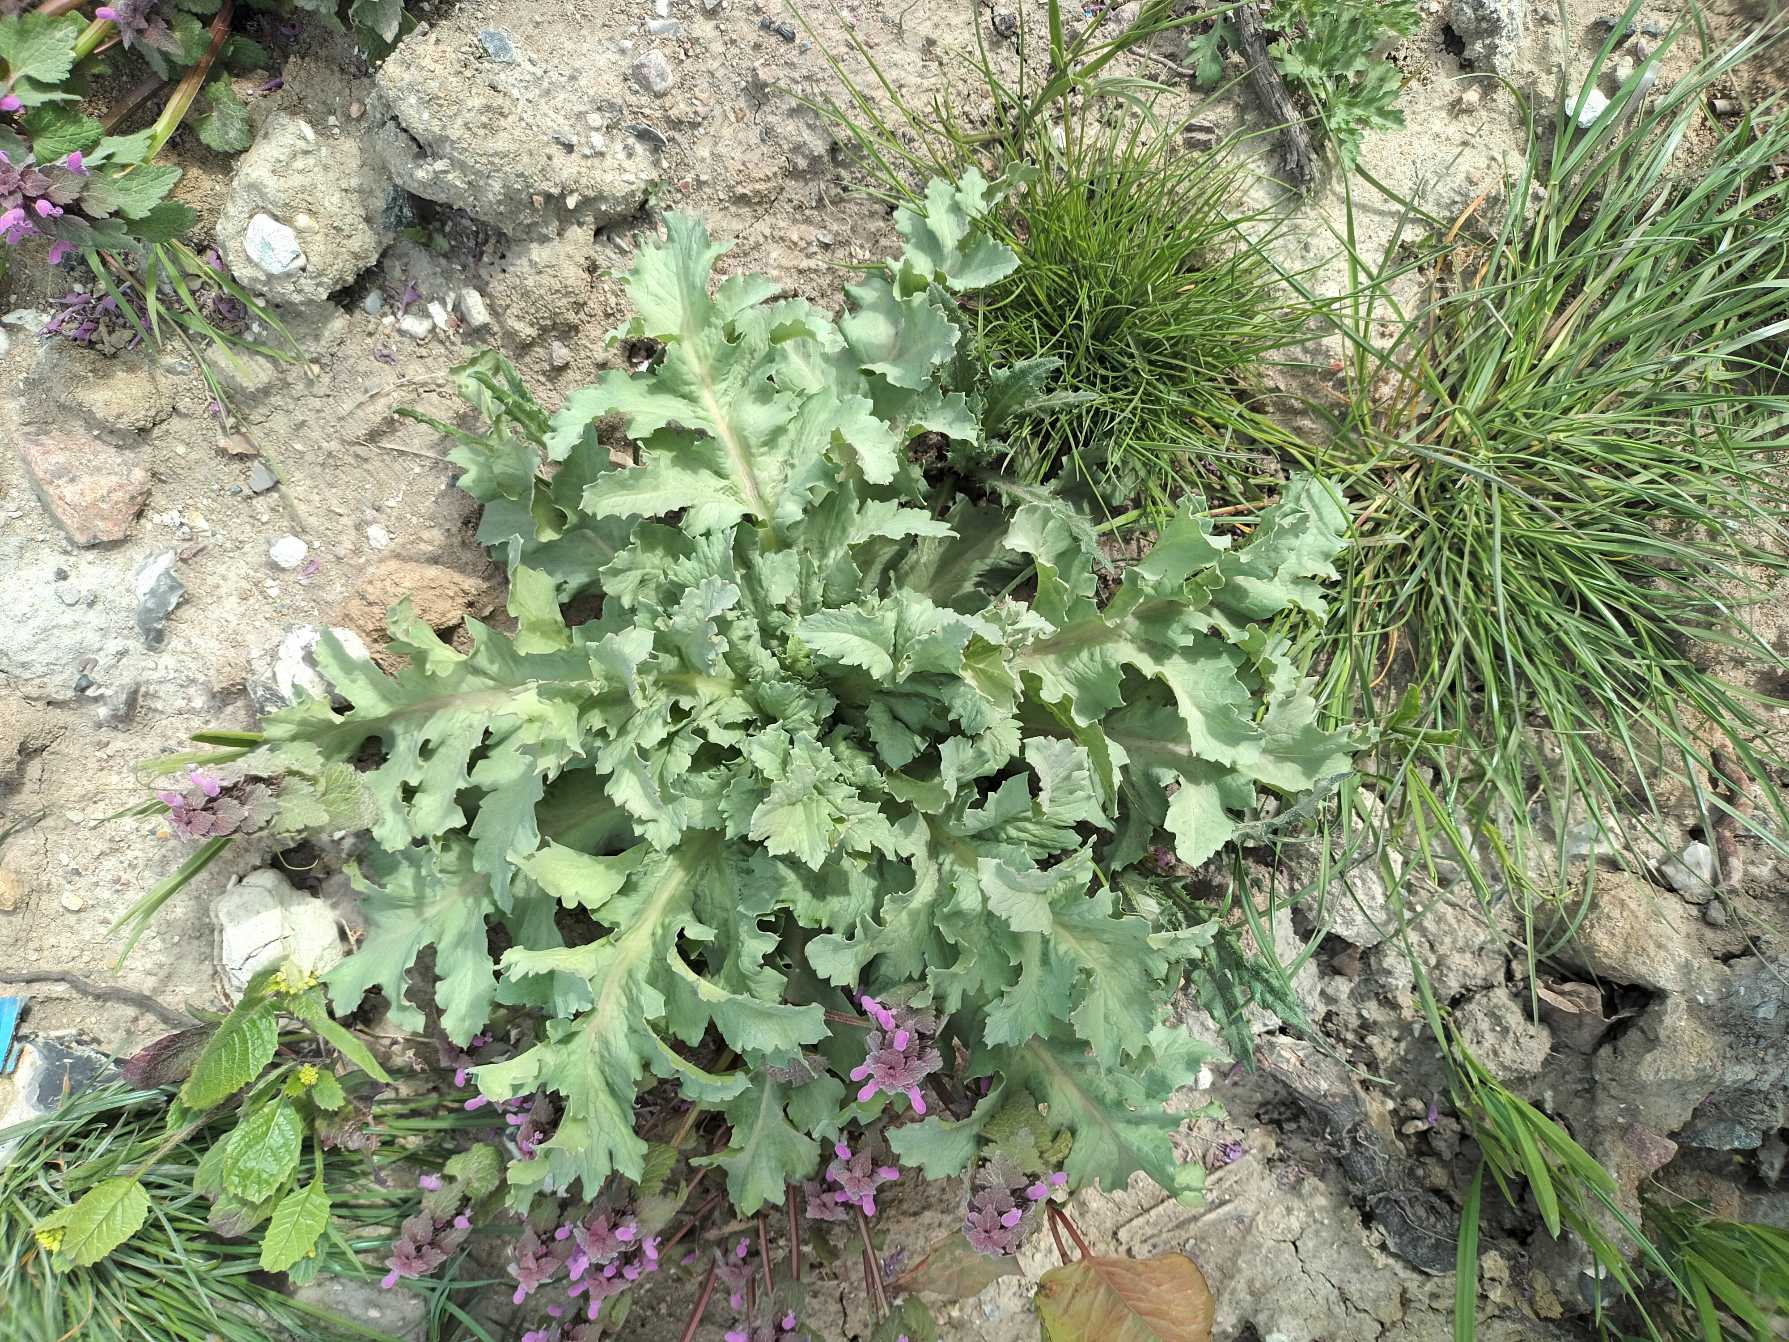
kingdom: Plantae
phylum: Tracheophyta
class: Magnoliopsida
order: Ranunculales
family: Papaveraceae
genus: Papaver
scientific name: Papaver somniferum
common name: Opium-valmue
